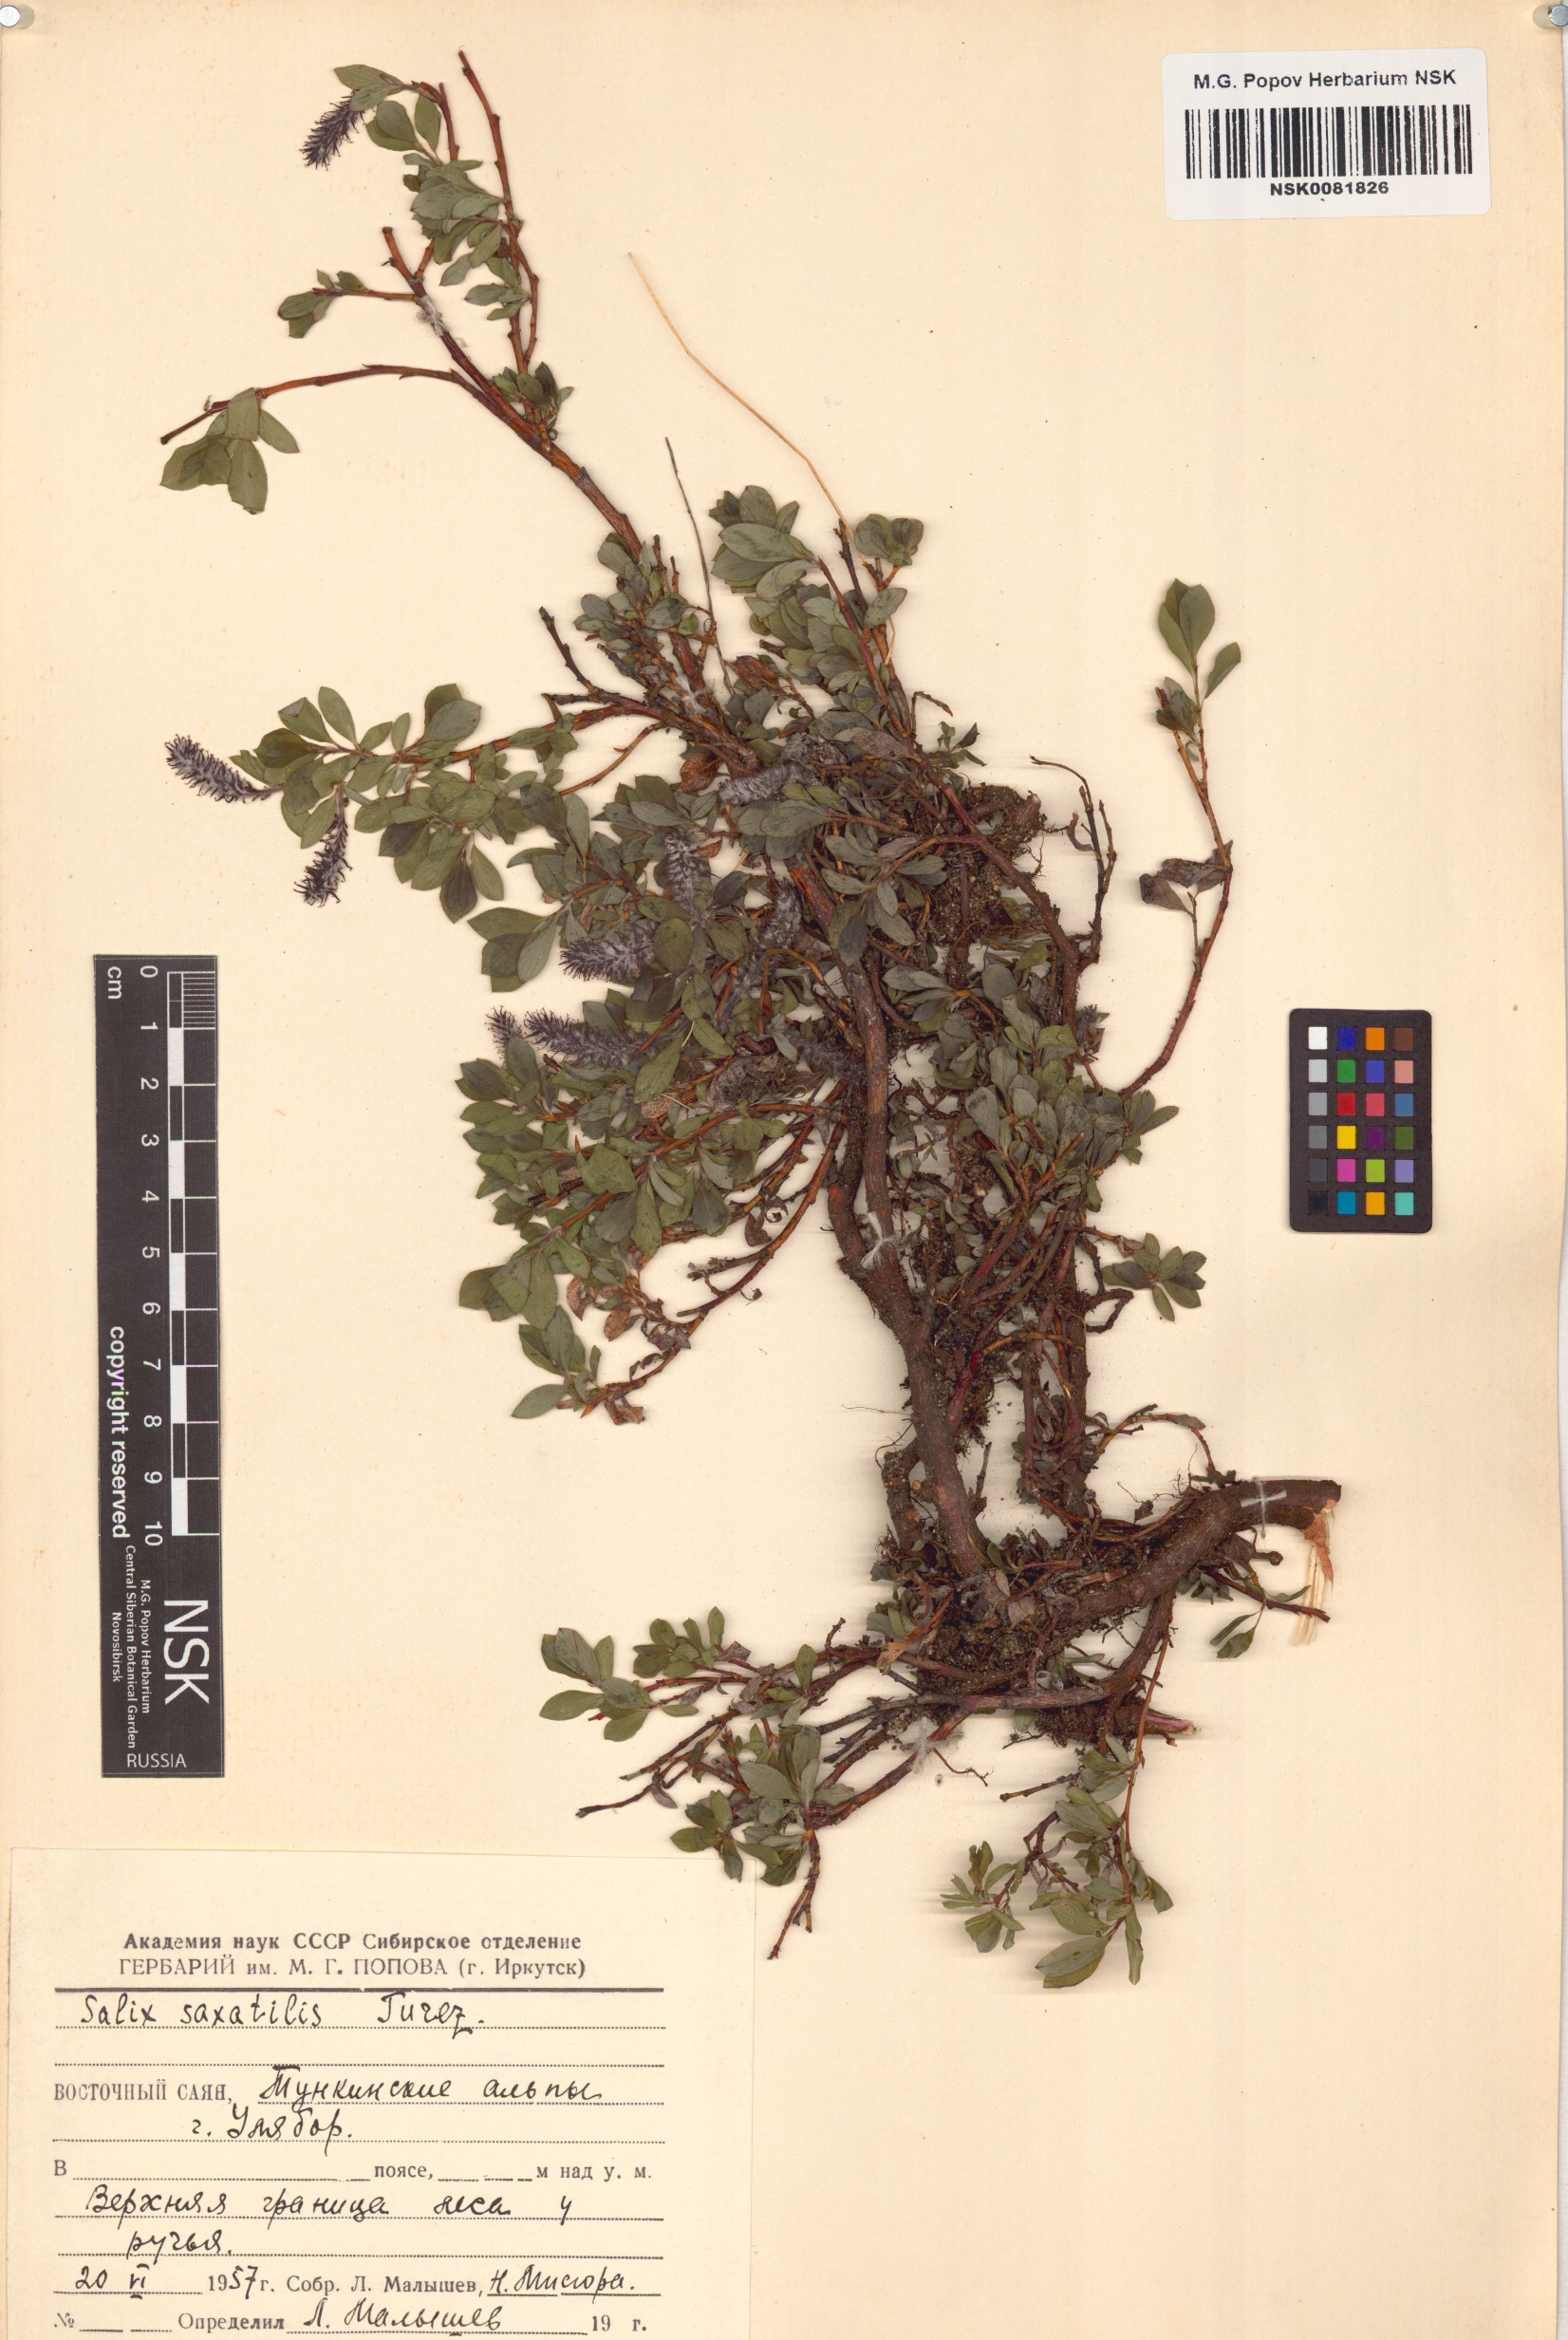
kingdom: Plantae
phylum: Tracheophyta
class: Magnoliopsida
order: Malpighiales
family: Salicaceae
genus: Salix
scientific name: Salix saxatilis
